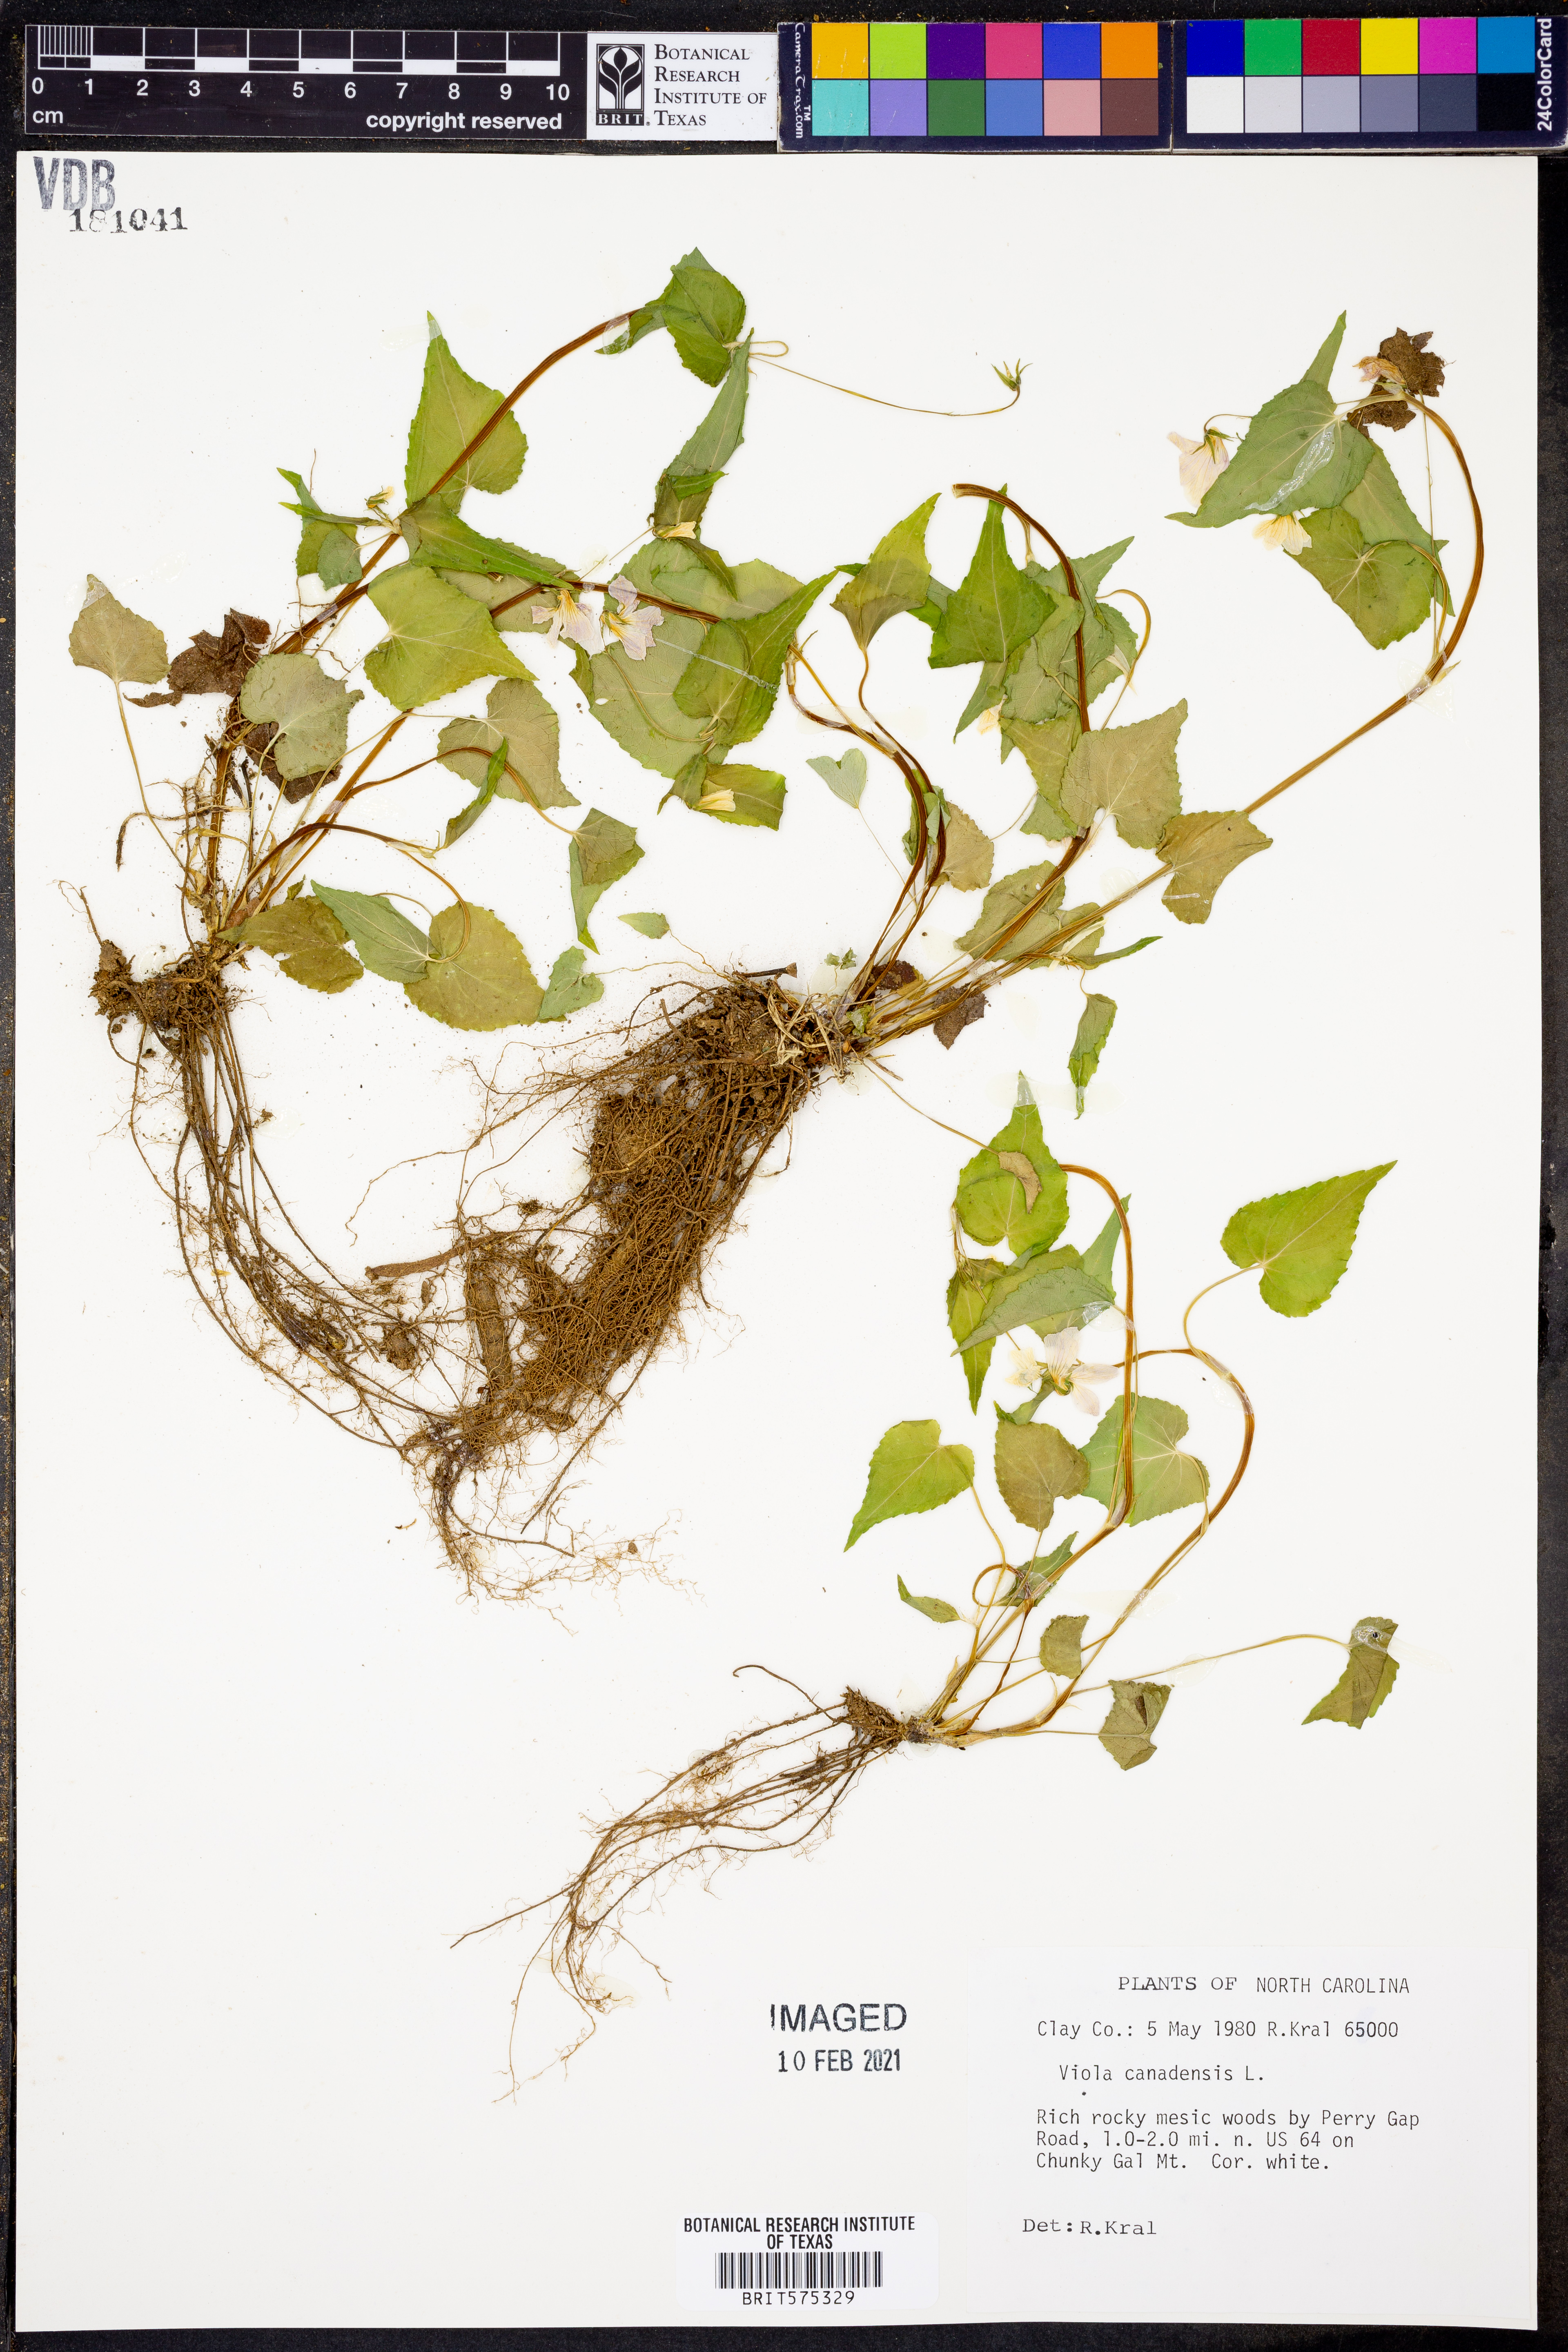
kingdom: Plantae
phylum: Tracheophyta
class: Magnoliopsida
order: Malpighiales
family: Violaceae
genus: Viola
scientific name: Viola canadensis
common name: Canada violet
